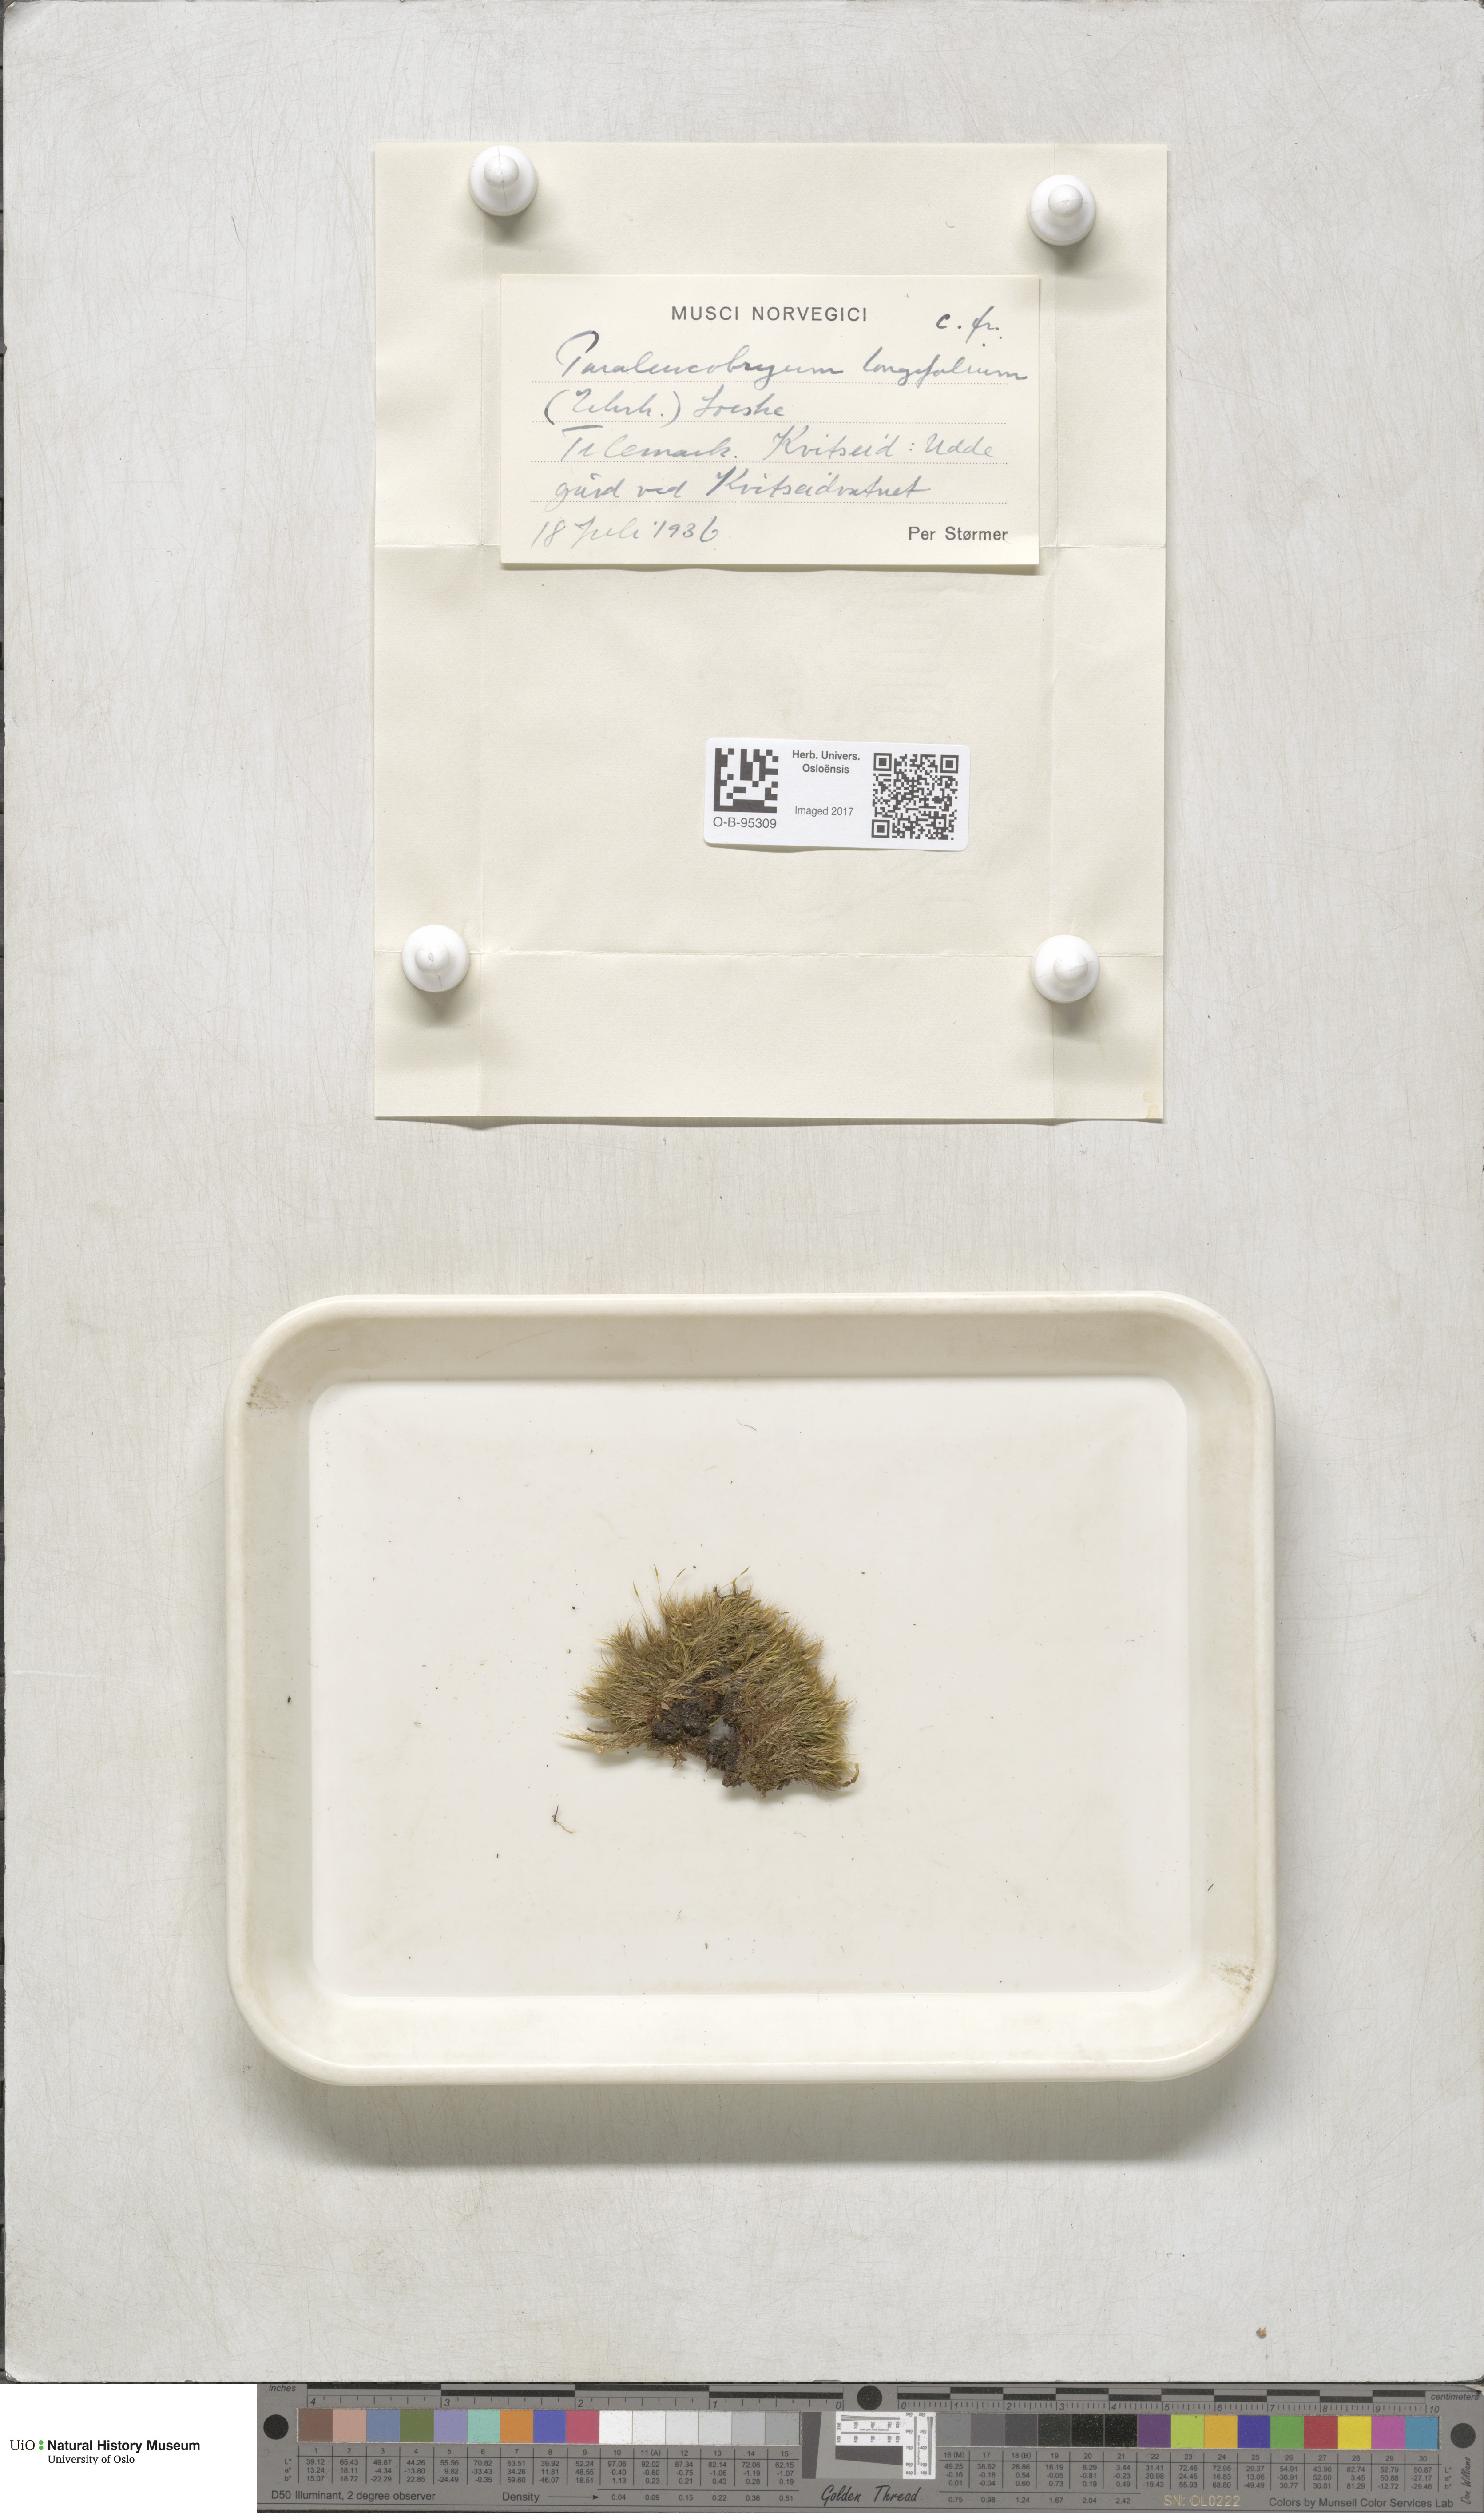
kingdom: Plantae
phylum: Bryophyta
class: Bryopsida
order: Dicranales
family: Dicranaceae
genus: Paraleucobryum
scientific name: Paraleucobryum longifolium
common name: Long-leaved fork moss
